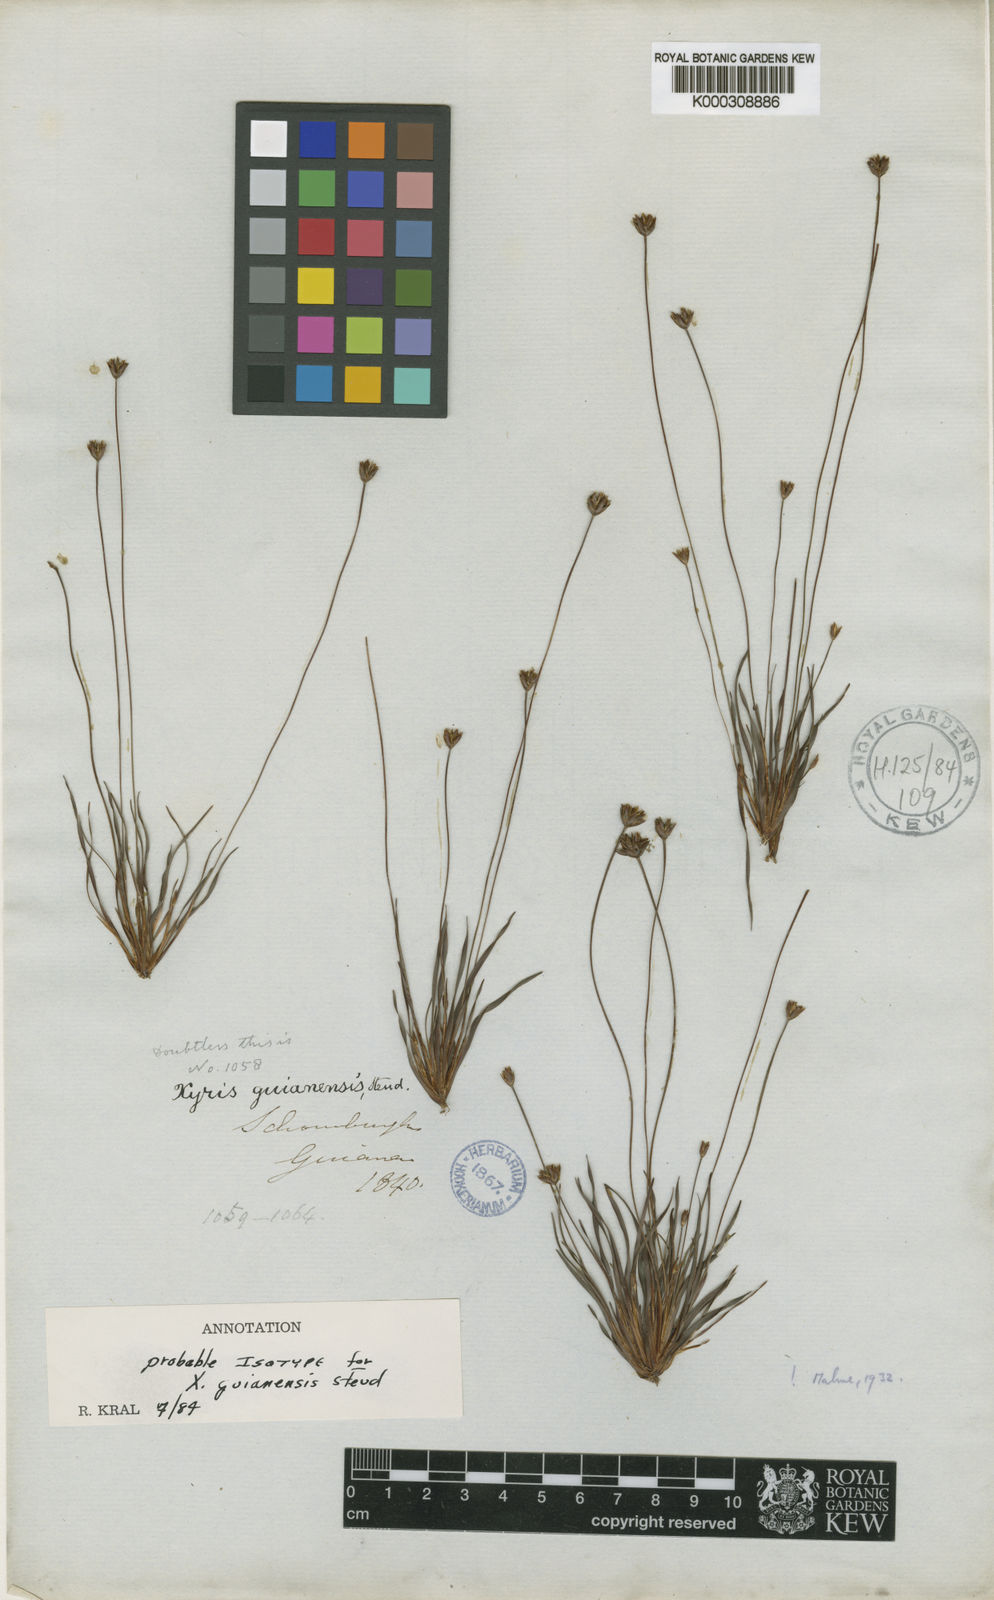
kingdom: Plantae
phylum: Tracheophyta
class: Liliopsida
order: Poales
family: Xyridaceae
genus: Xyris
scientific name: Xyris guianensis
